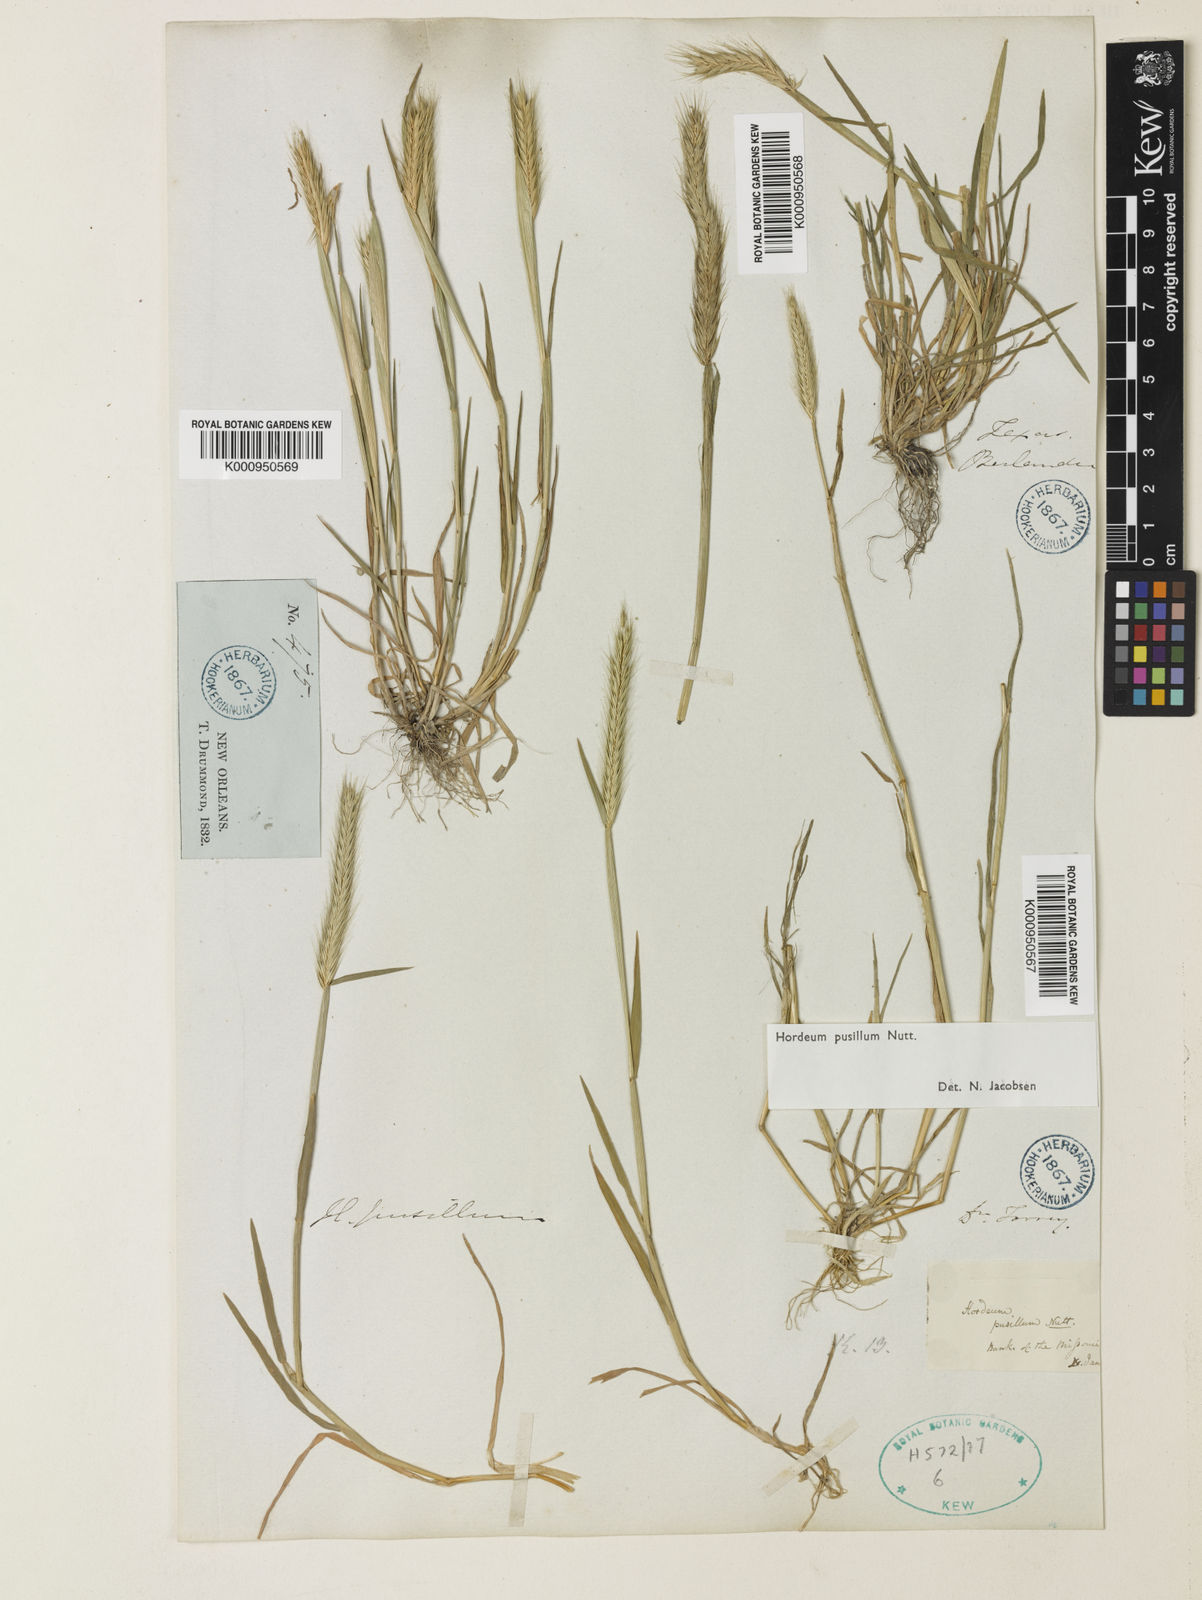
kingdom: Plantae
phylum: Tracheophyta
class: Liliopsida
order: Poales
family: Poaceae
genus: Hordeum
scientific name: Hordeum pusillum
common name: Little barley
